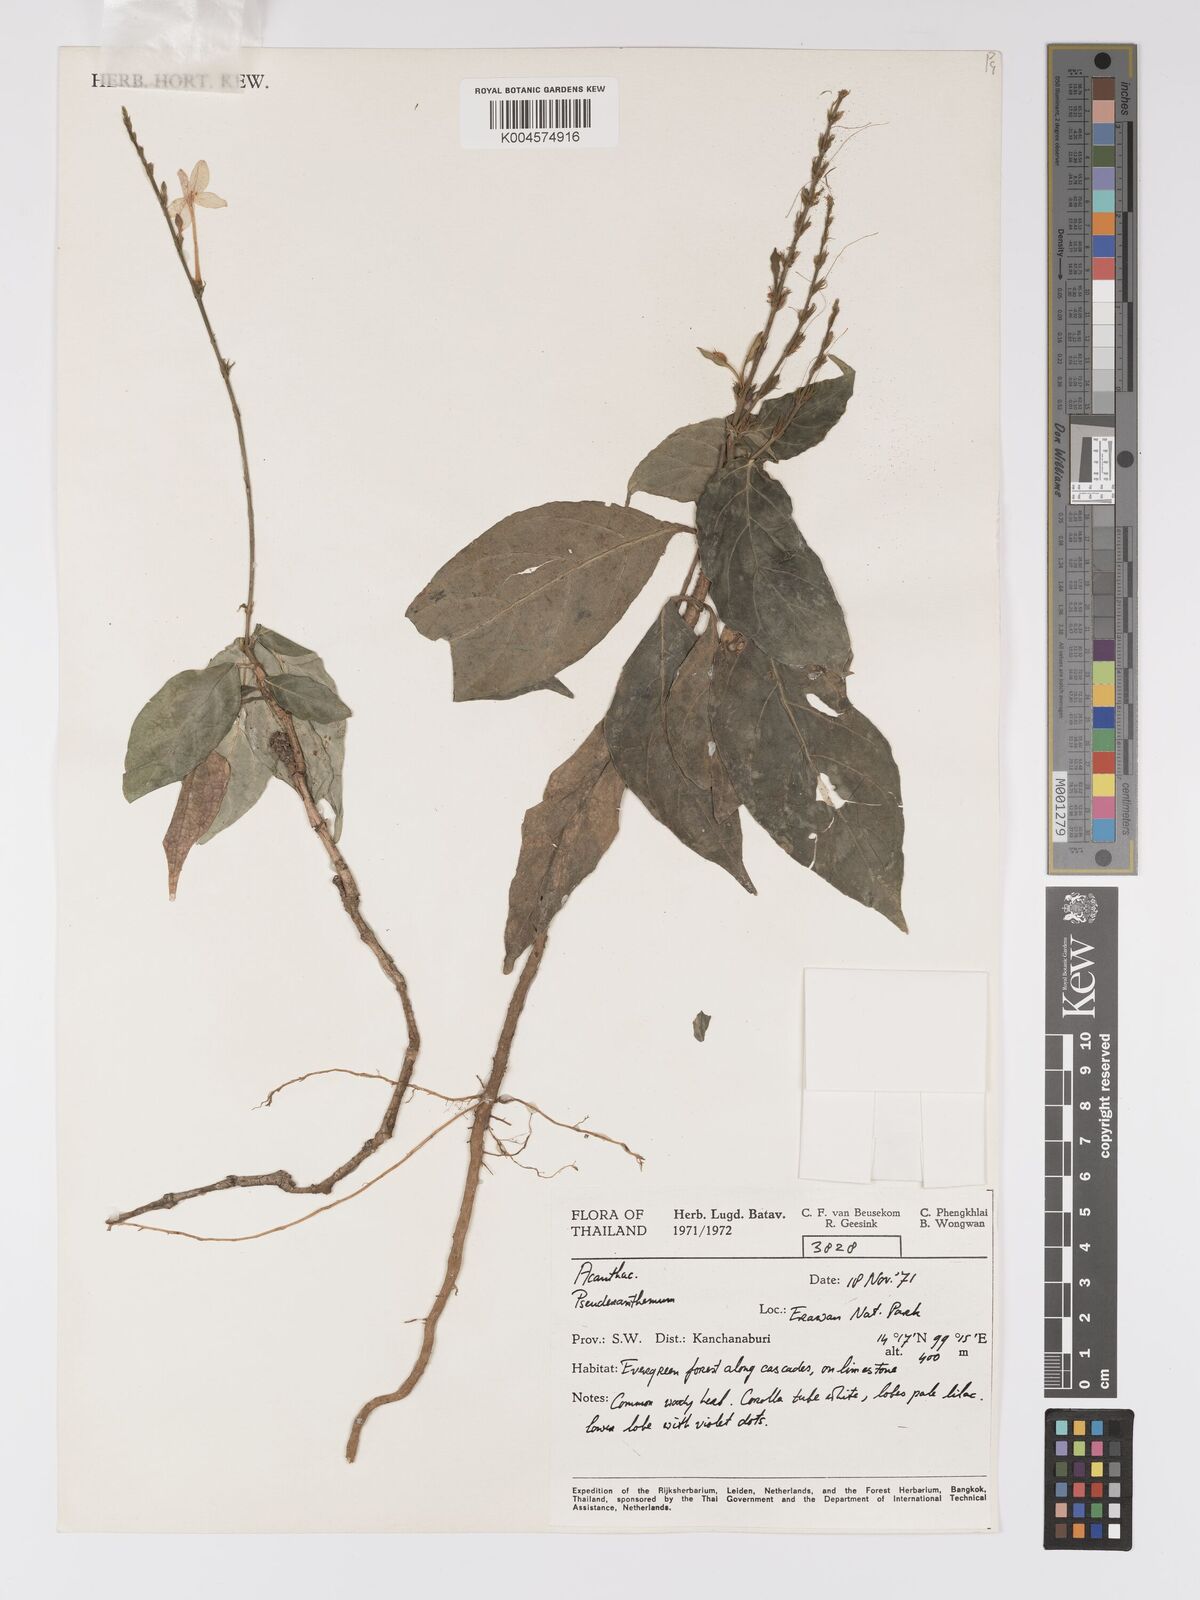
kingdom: Plantae
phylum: Tracheophyta
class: Magnoliopsida
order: Lamiales
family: Acanthaceae
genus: Pseuderanthemum
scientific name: Pseuderanthemum
